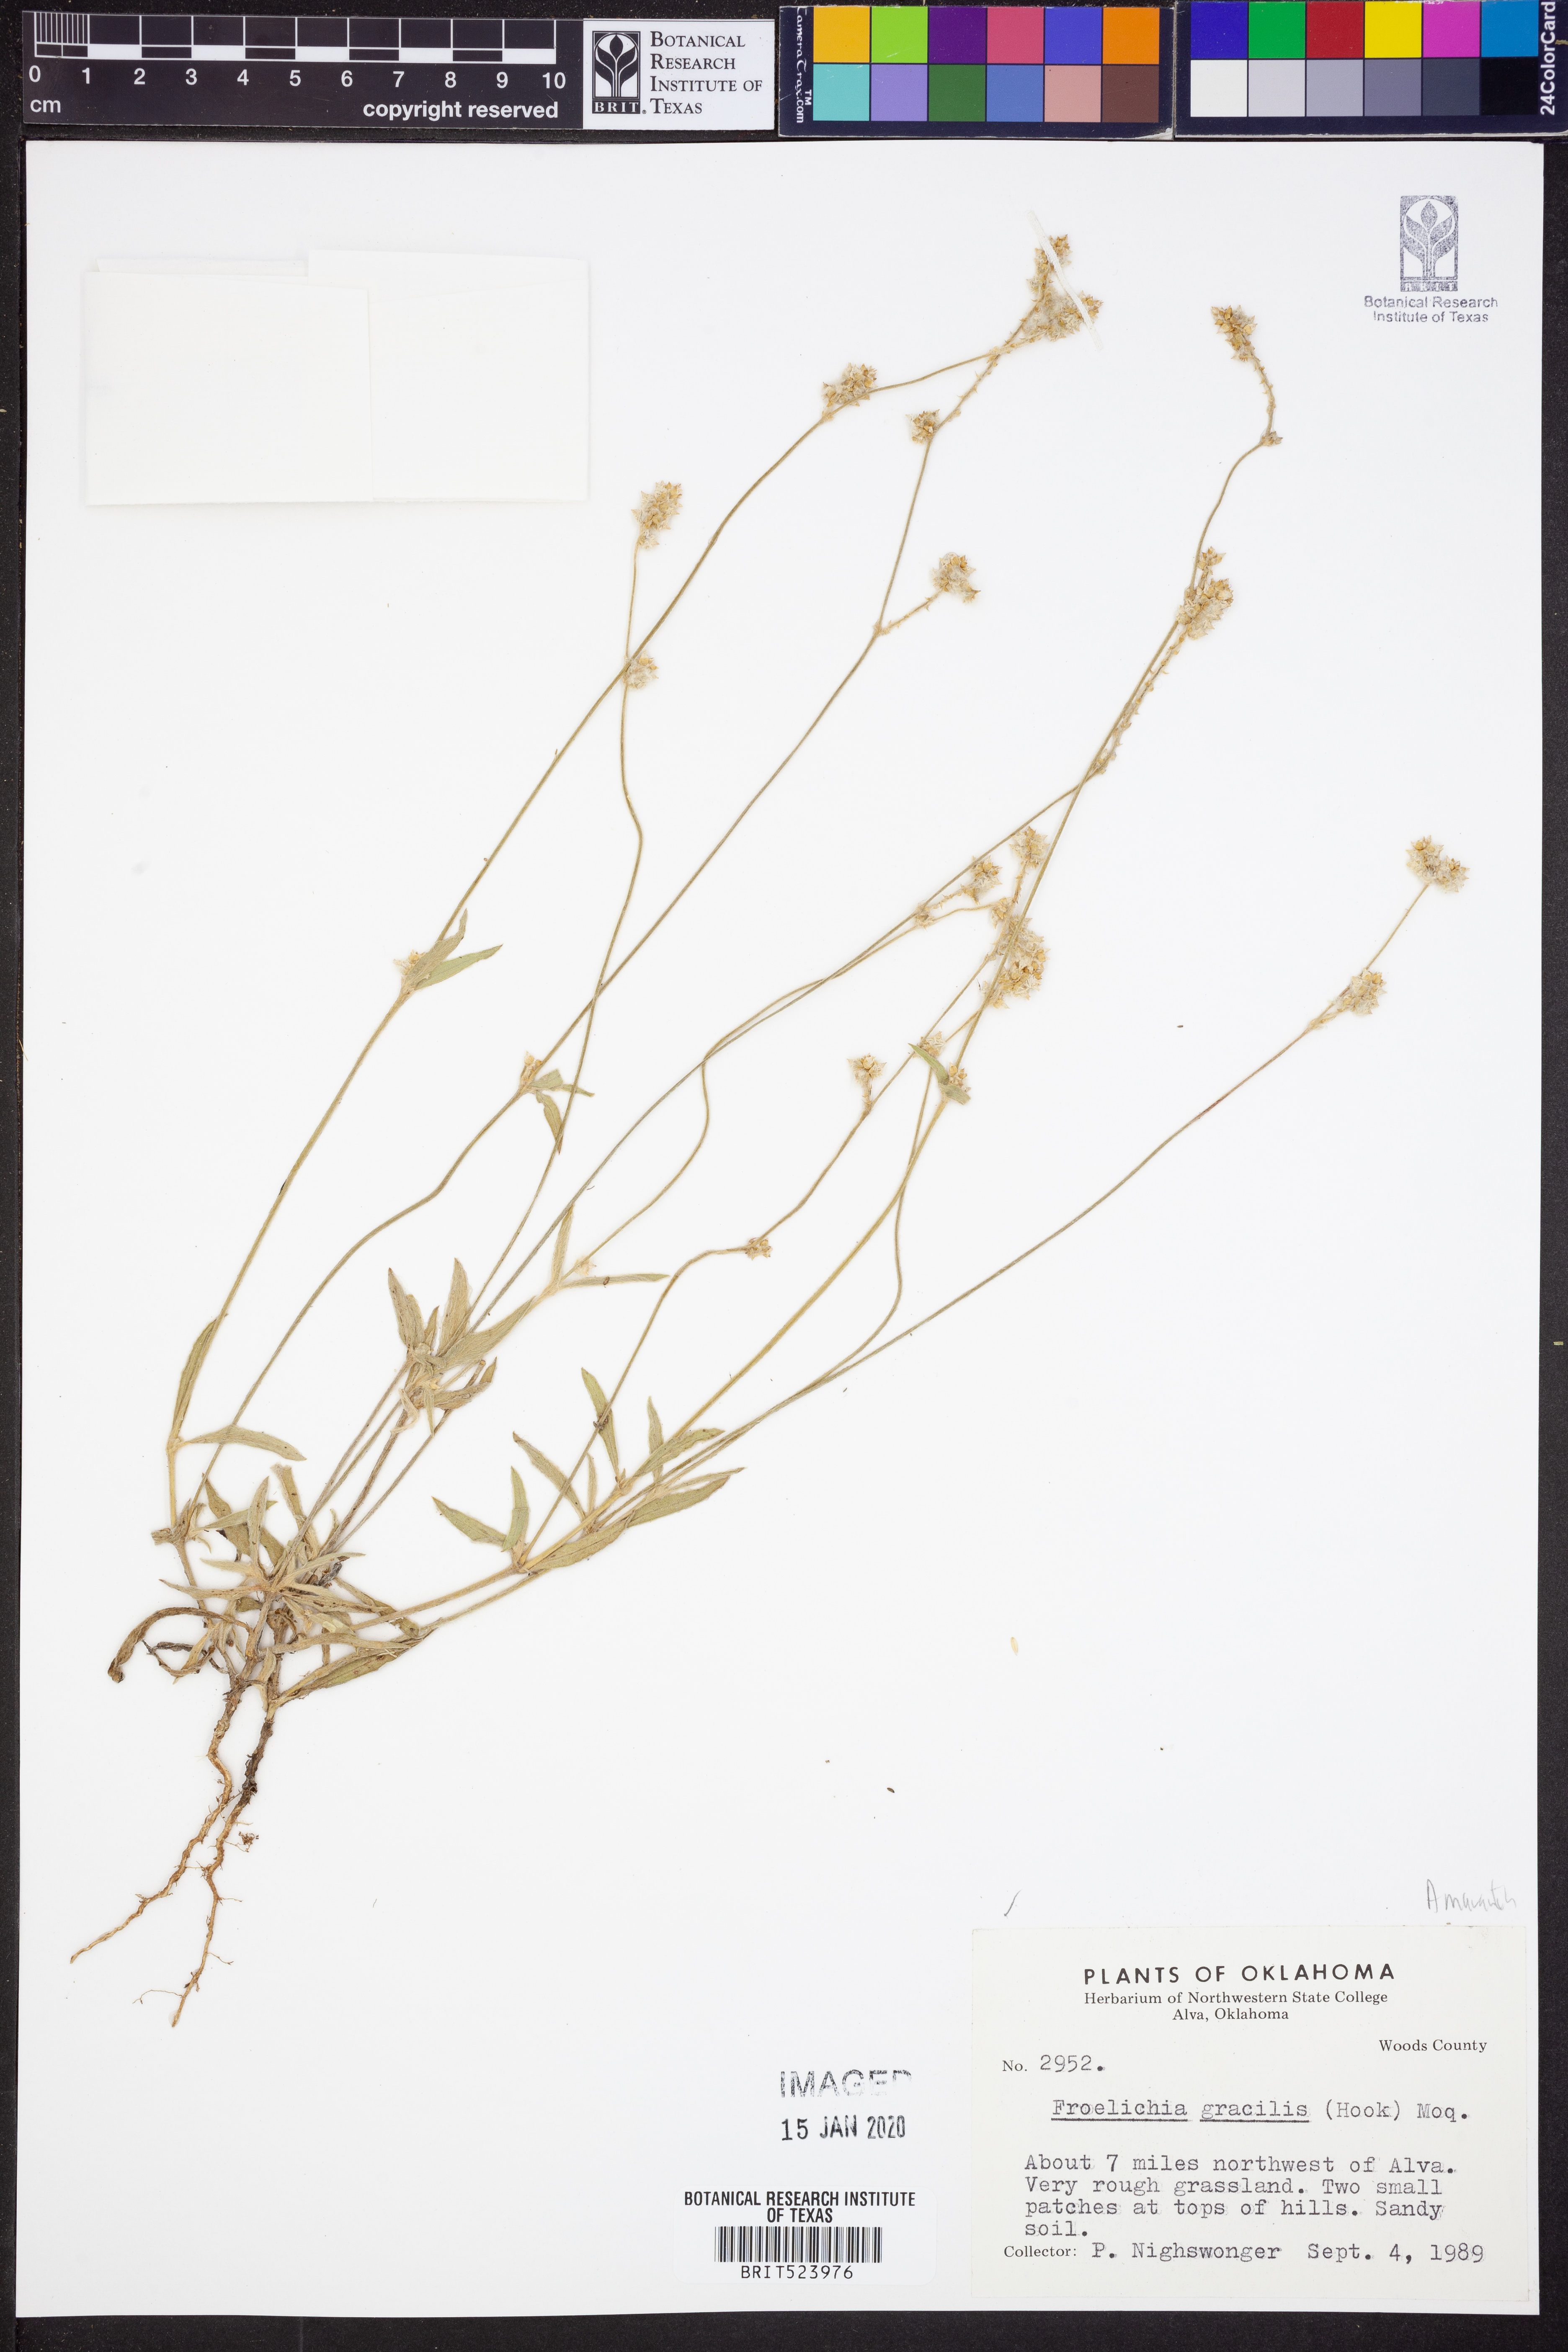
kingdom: Plantae
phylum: Tracheophyta
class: Magnoliopsida
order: Caryophyllales
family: Amaranthaceae
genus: Froelichia
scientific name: Froelichia gracilis
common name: Slender cottonweed
